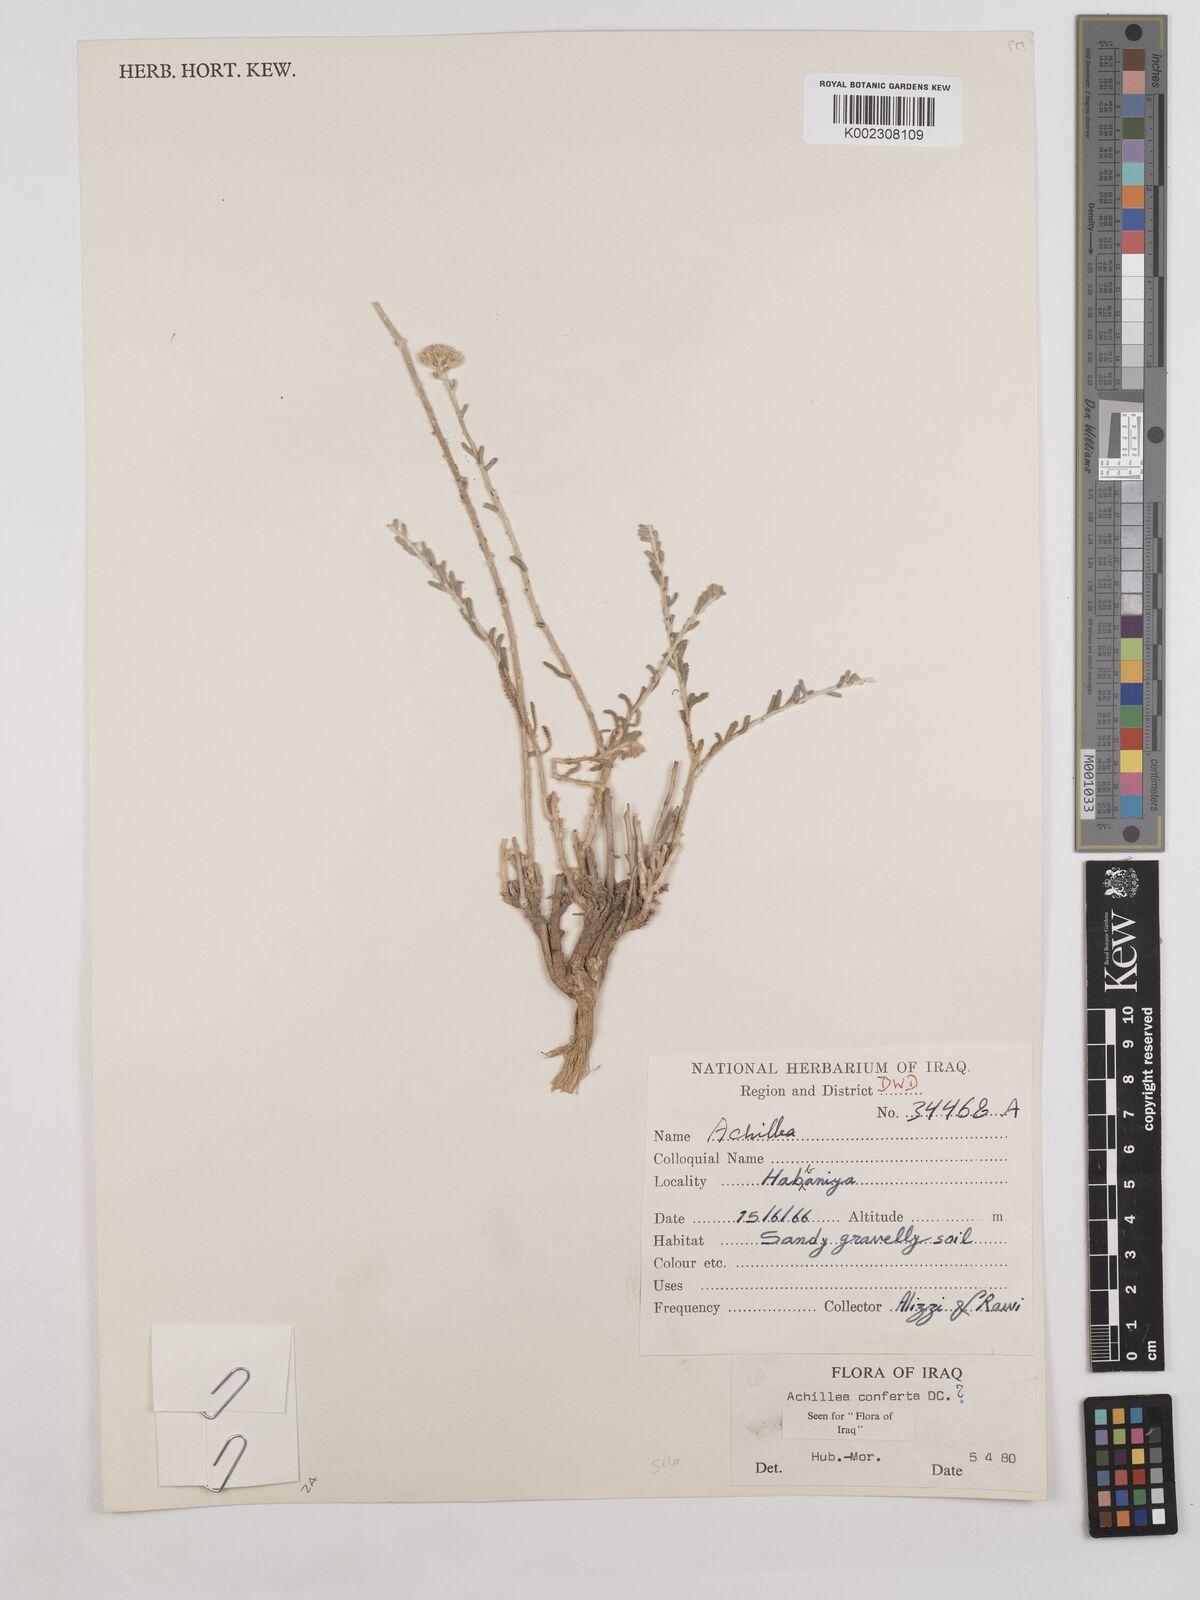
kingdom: Plantae
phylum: Tracheophyta
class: Magnoliopsida
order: Asterales
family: Asteraceae
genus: Achillea
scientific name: Achillea conferta
